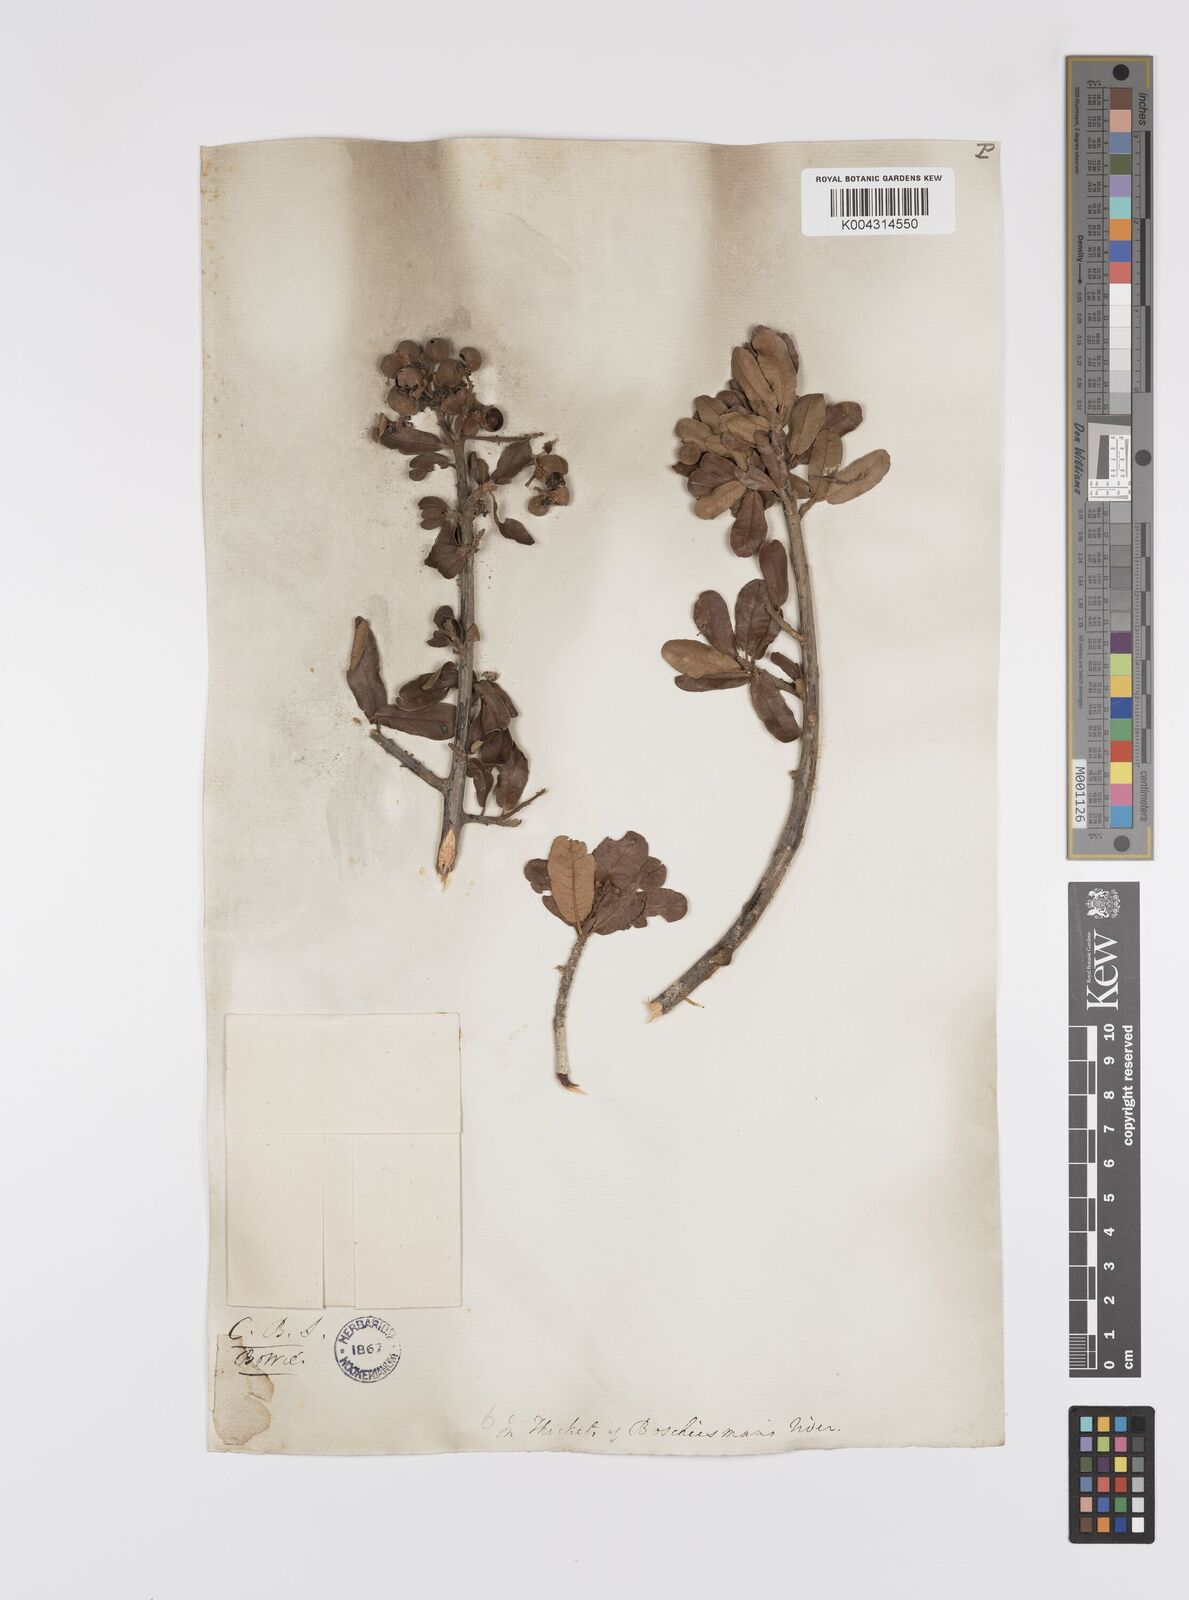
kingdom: Plantae
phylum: Tracheophyta
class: Magnoliopsida
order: Sapindales
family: Sapindaceae
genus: Pappea
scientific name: Pappea capensis
